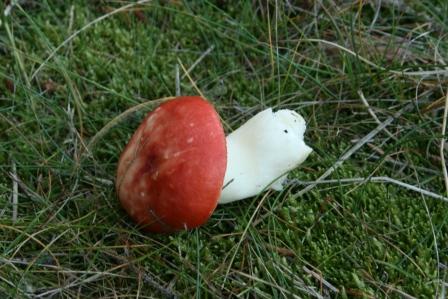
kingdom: Fungi
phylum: Basidiomycota
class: Agaricomycetes
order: Russulales
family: Russulaceae
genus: Russula
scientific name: Russula emetica
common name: stor gift-skørhat
